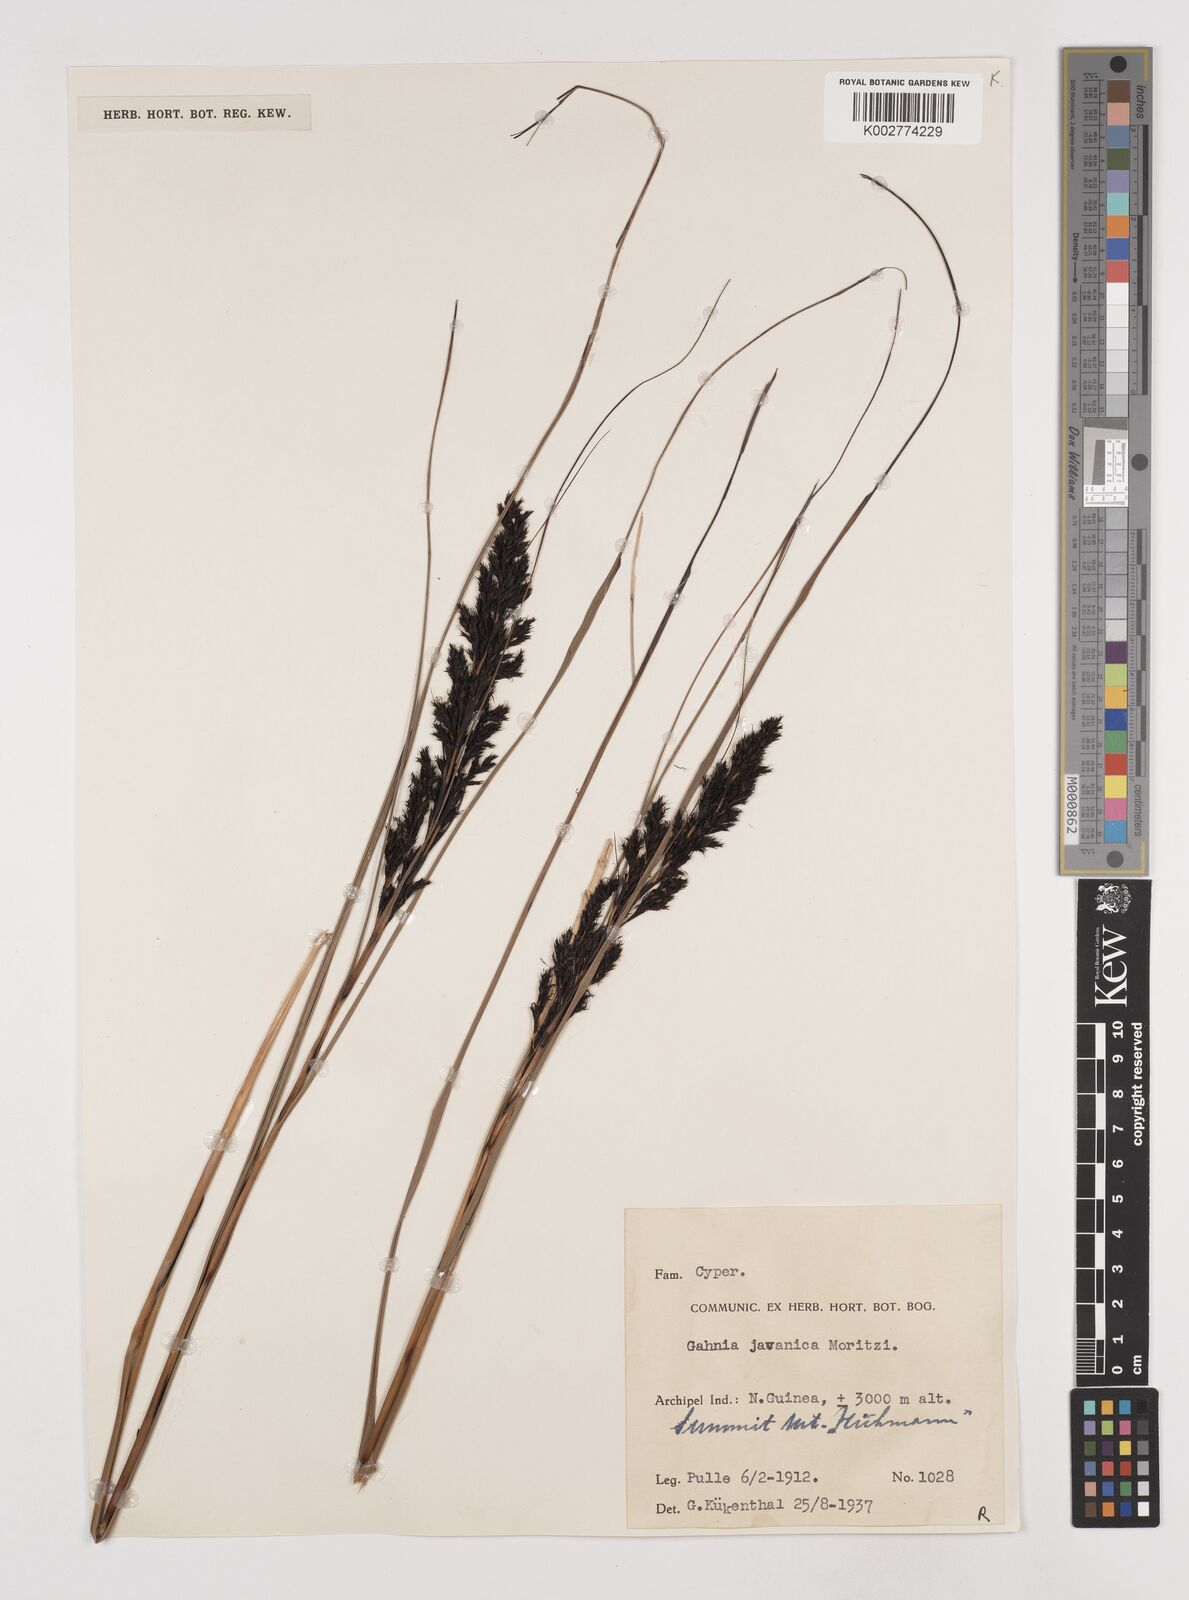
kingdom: Plantae
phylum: Tracheophyta
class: Liliopsida
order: Poales
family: Cyperaceae
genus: Gahnia
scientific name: Gahnia javanica
